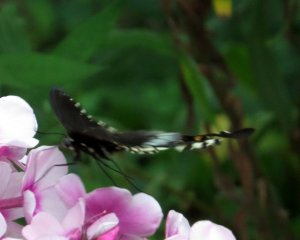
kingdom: Animalia
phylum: Arthropoda
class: Insecta
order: Lepidoptera
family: Papilionidae
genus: Pterourus
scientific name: Pterourus troilus
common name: Spicebush Swallowtail
